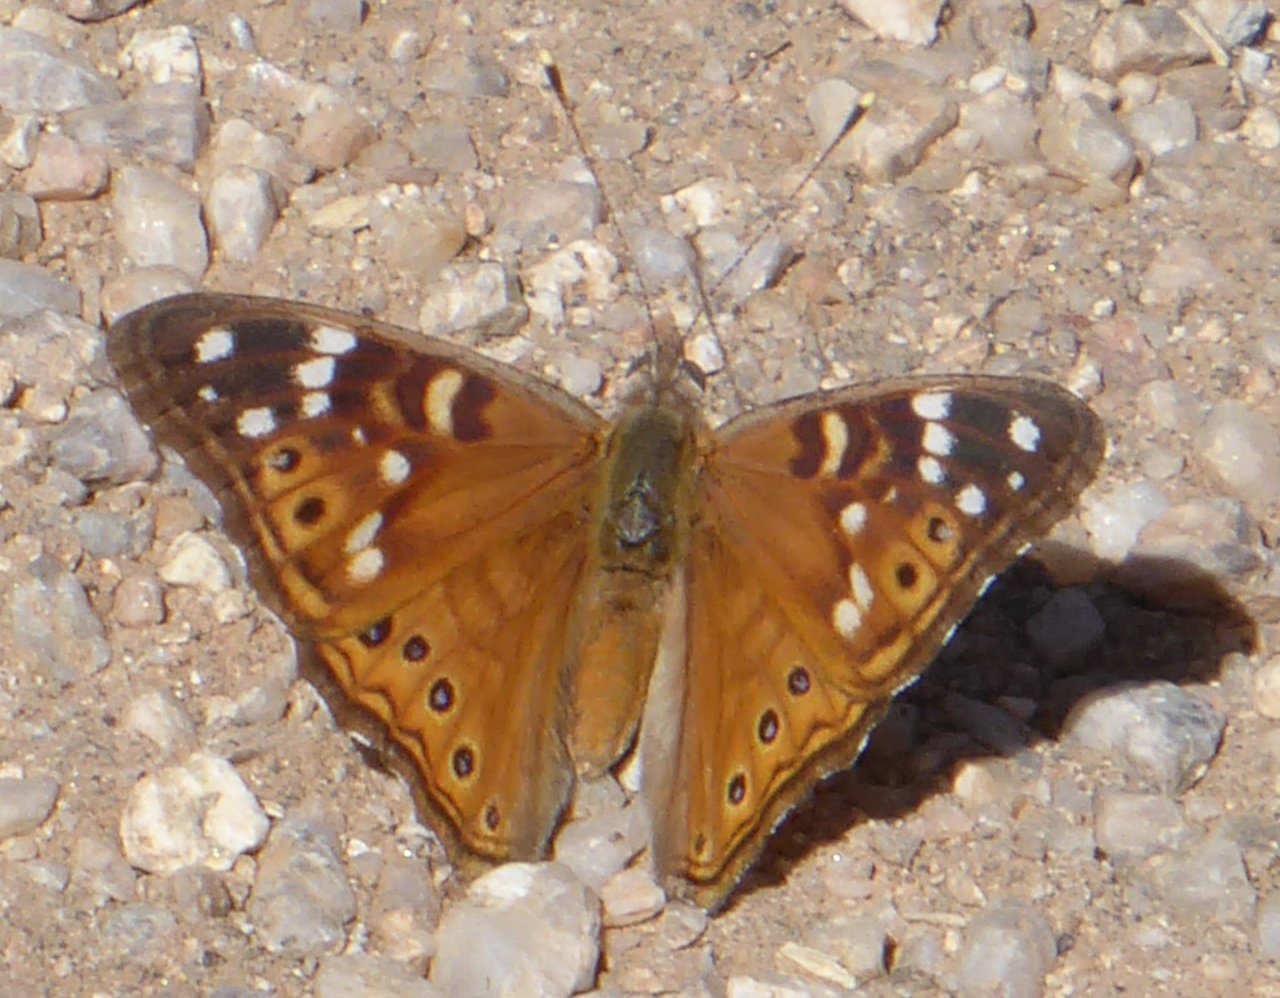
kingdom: Animalia
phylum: Arthropoda
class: Insecta
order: Lepidoptera
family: Nymphalidae
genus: Asterocampa
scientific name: Asterocampa leilia
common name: Empress Leilia
